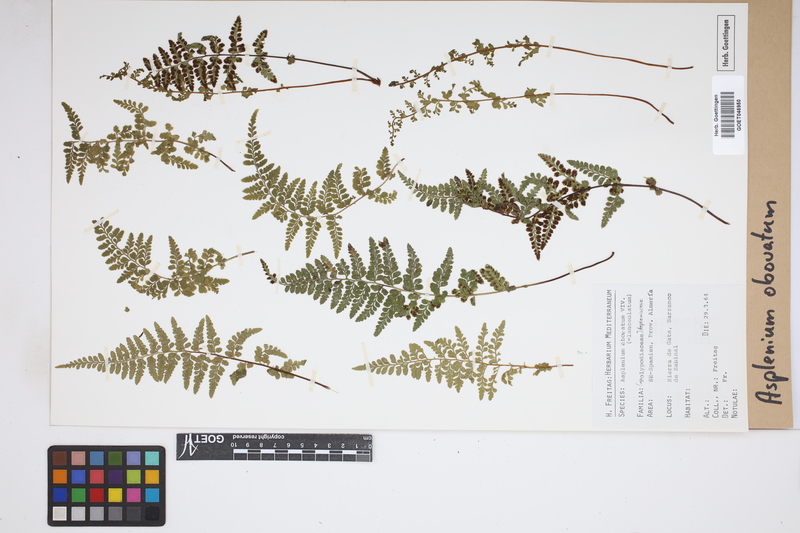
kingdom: Plantae
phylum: Tracheophyta
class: Polypodiopsida
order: Polypodiales
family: Aspleniaceae
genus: Asplenium
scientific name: Asplenium obovatum
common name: Lanceolate spleenwort
